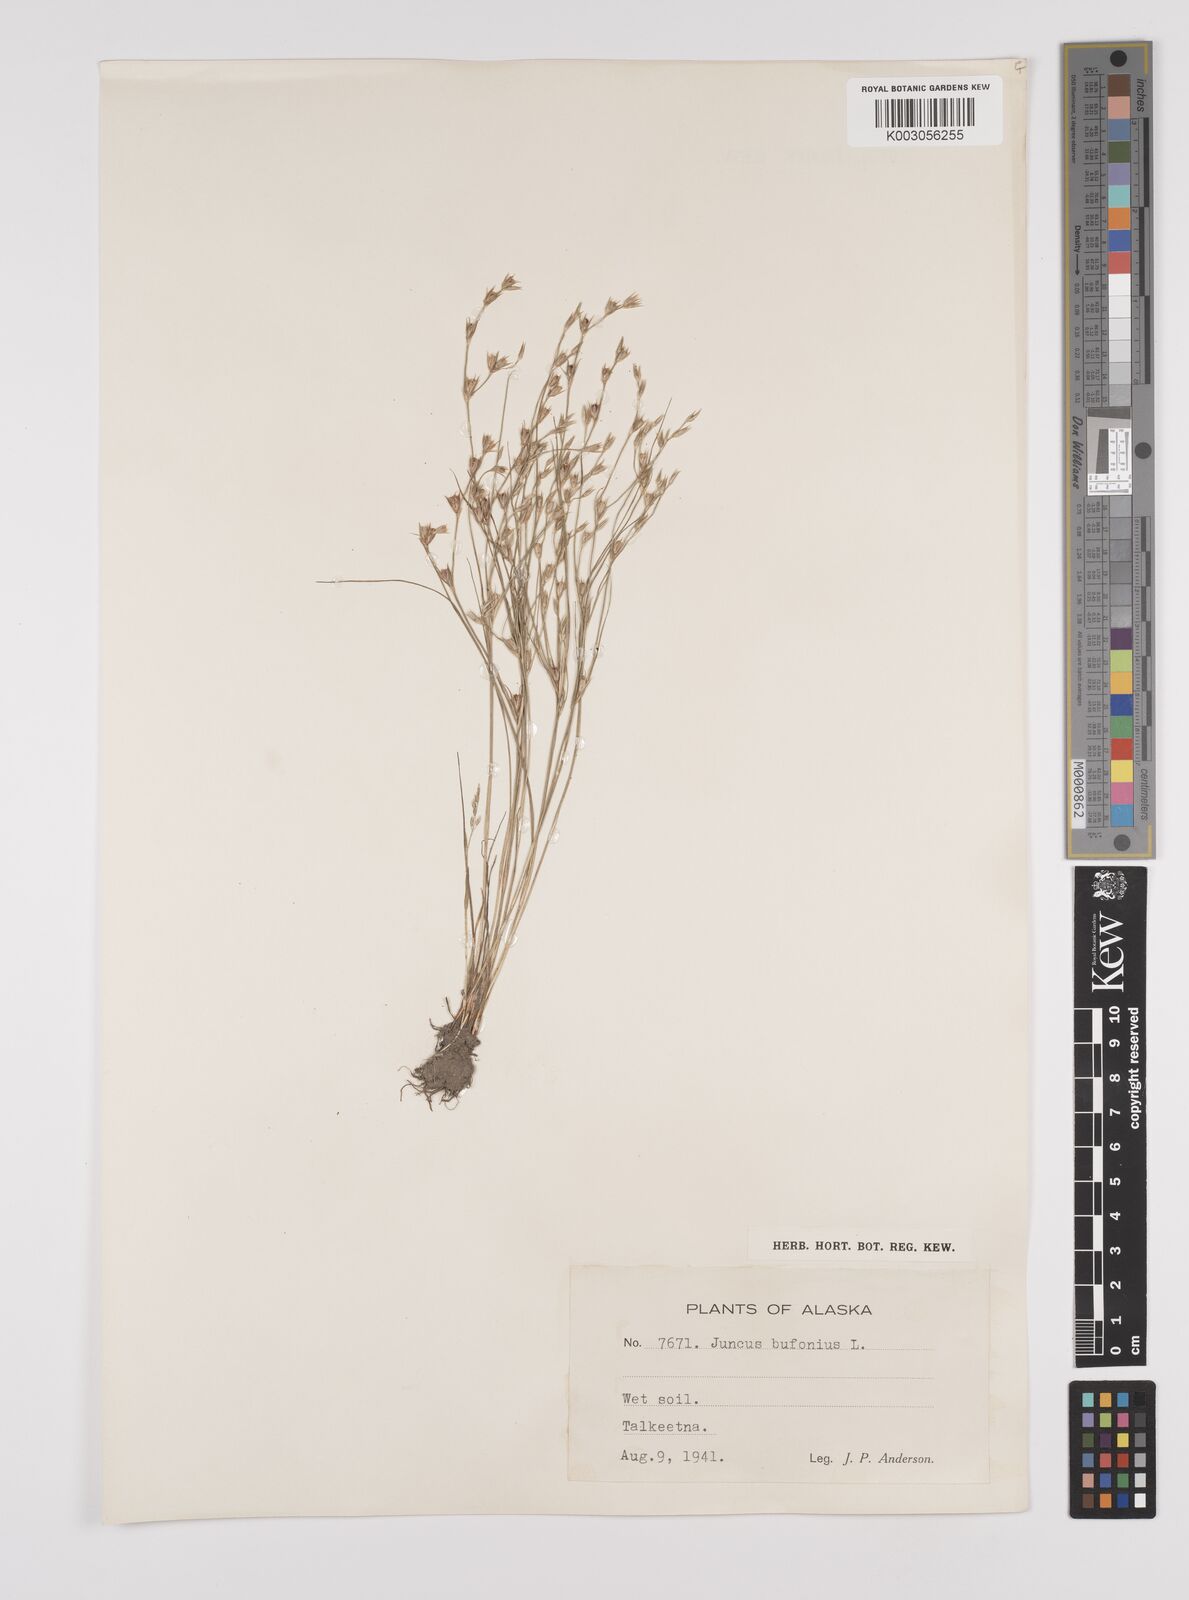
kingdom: Plantae
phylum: Tracheophyta
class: Liliopsida
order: Poales
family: Juncaceae
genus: Juncus
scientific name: Juncus bufonius
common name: Toad rush
